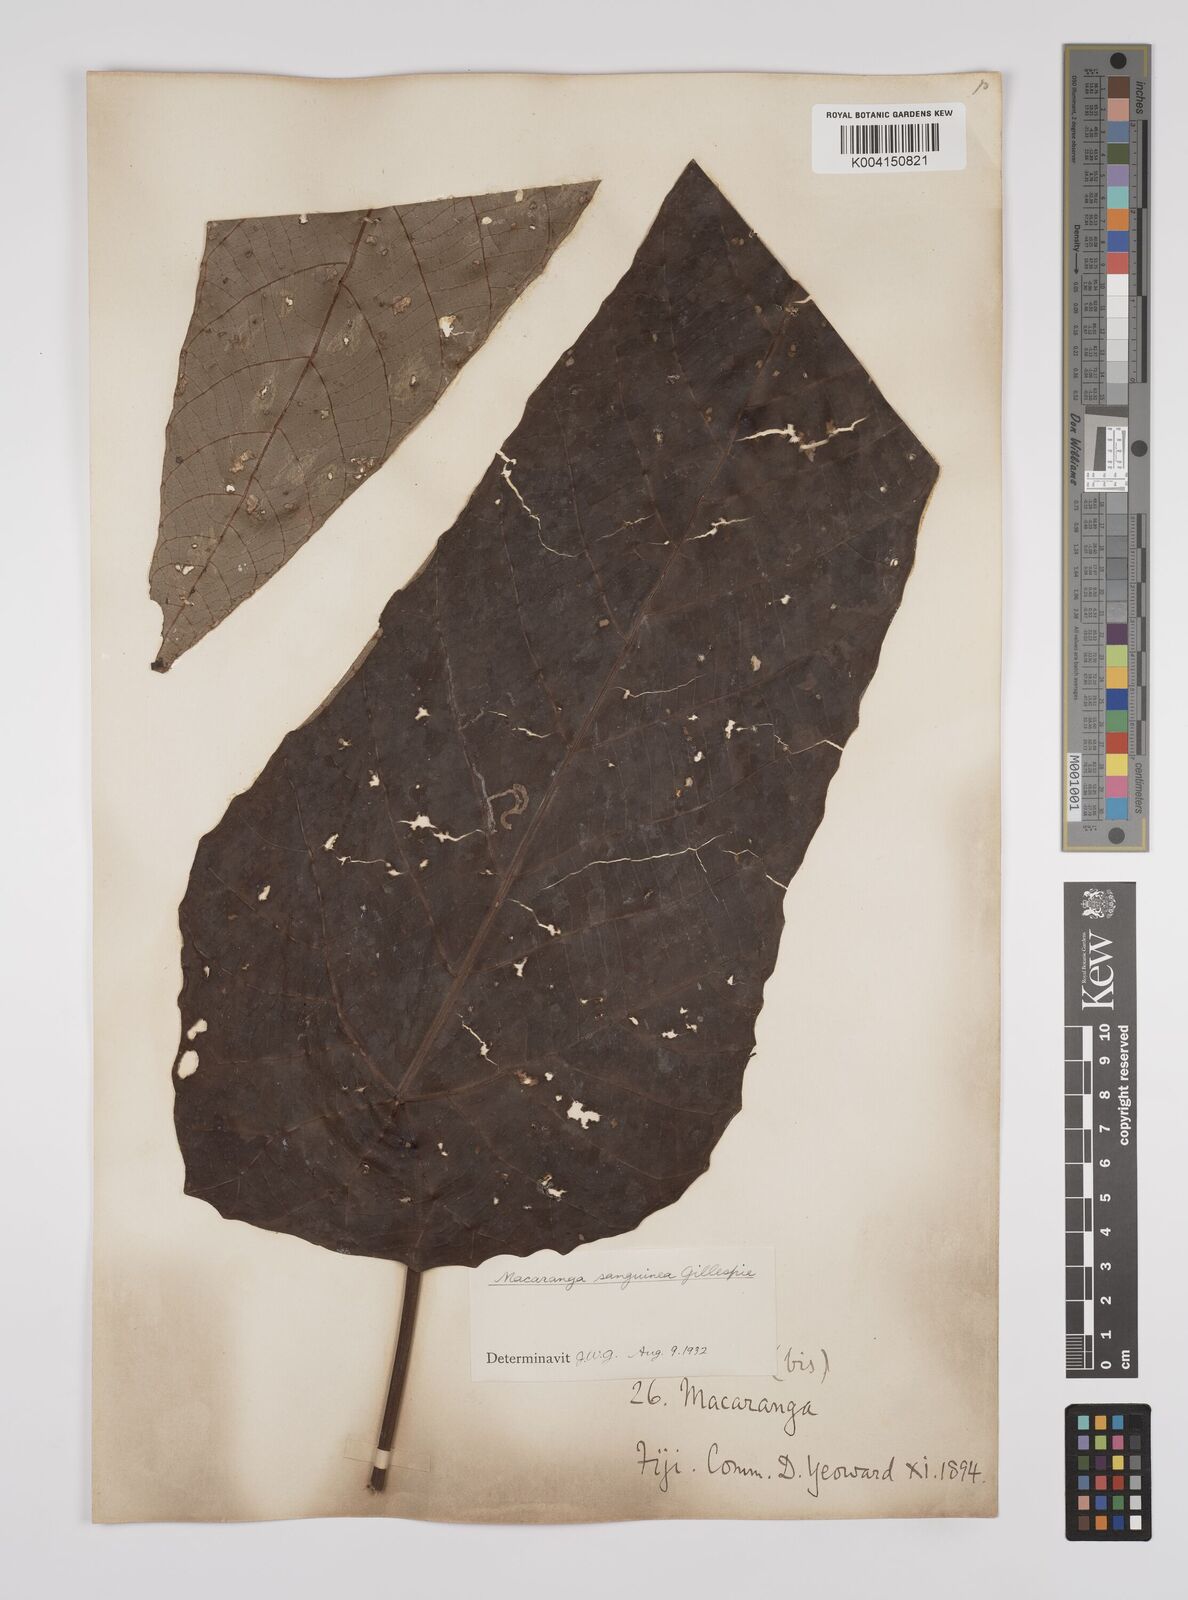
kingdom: Plantae
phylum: Tracheophyta
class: Magnoliopsida
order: Malpighiales
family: Euphorbiaceae
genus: Macaranga
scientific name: Macaranga vitiensis
